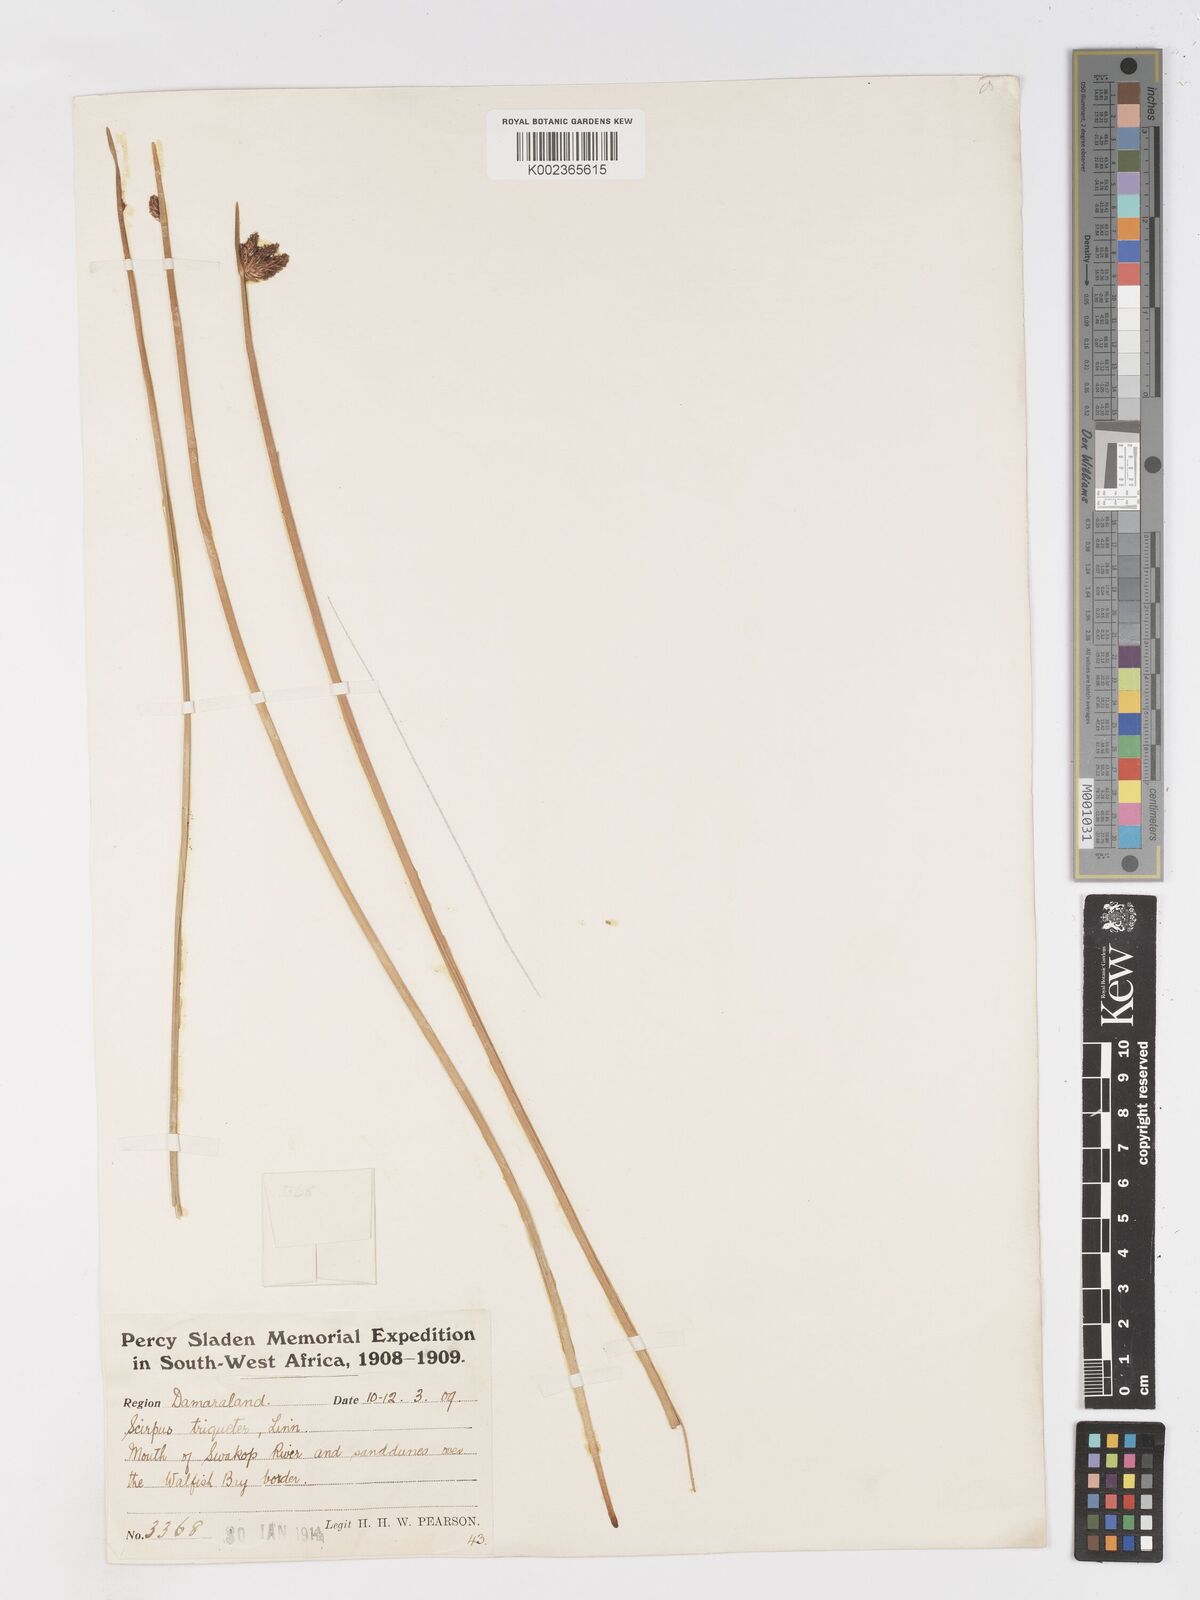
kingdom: Plantae
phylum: Tracheophyta
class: Liliopsida
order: Poales
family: Cyperaceae
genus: Schoenoplectus
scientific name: Schoenoplectus triqueter
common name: Triangular club-rush
